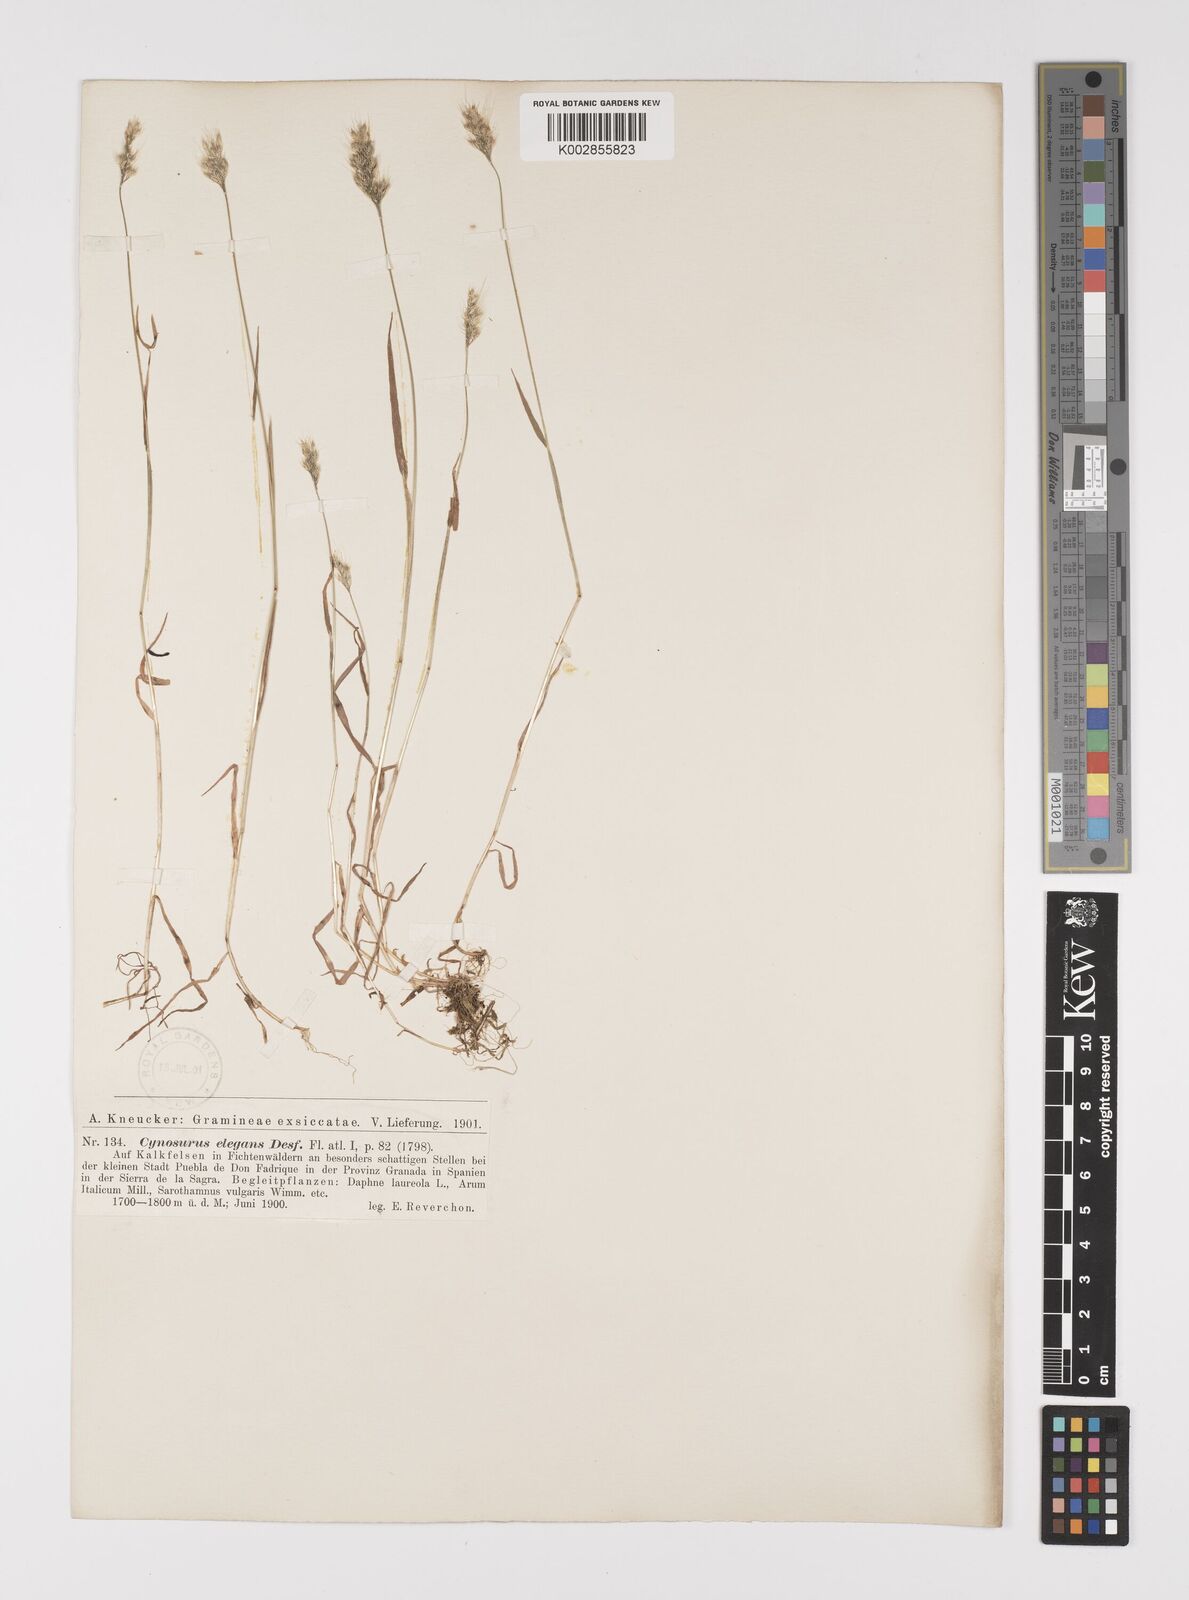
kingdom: Plantae
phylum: Tracheophyta
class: Liliopsida
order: Poales
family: Poaceae
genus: Cynosurus
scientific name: Cynosurus elegans
